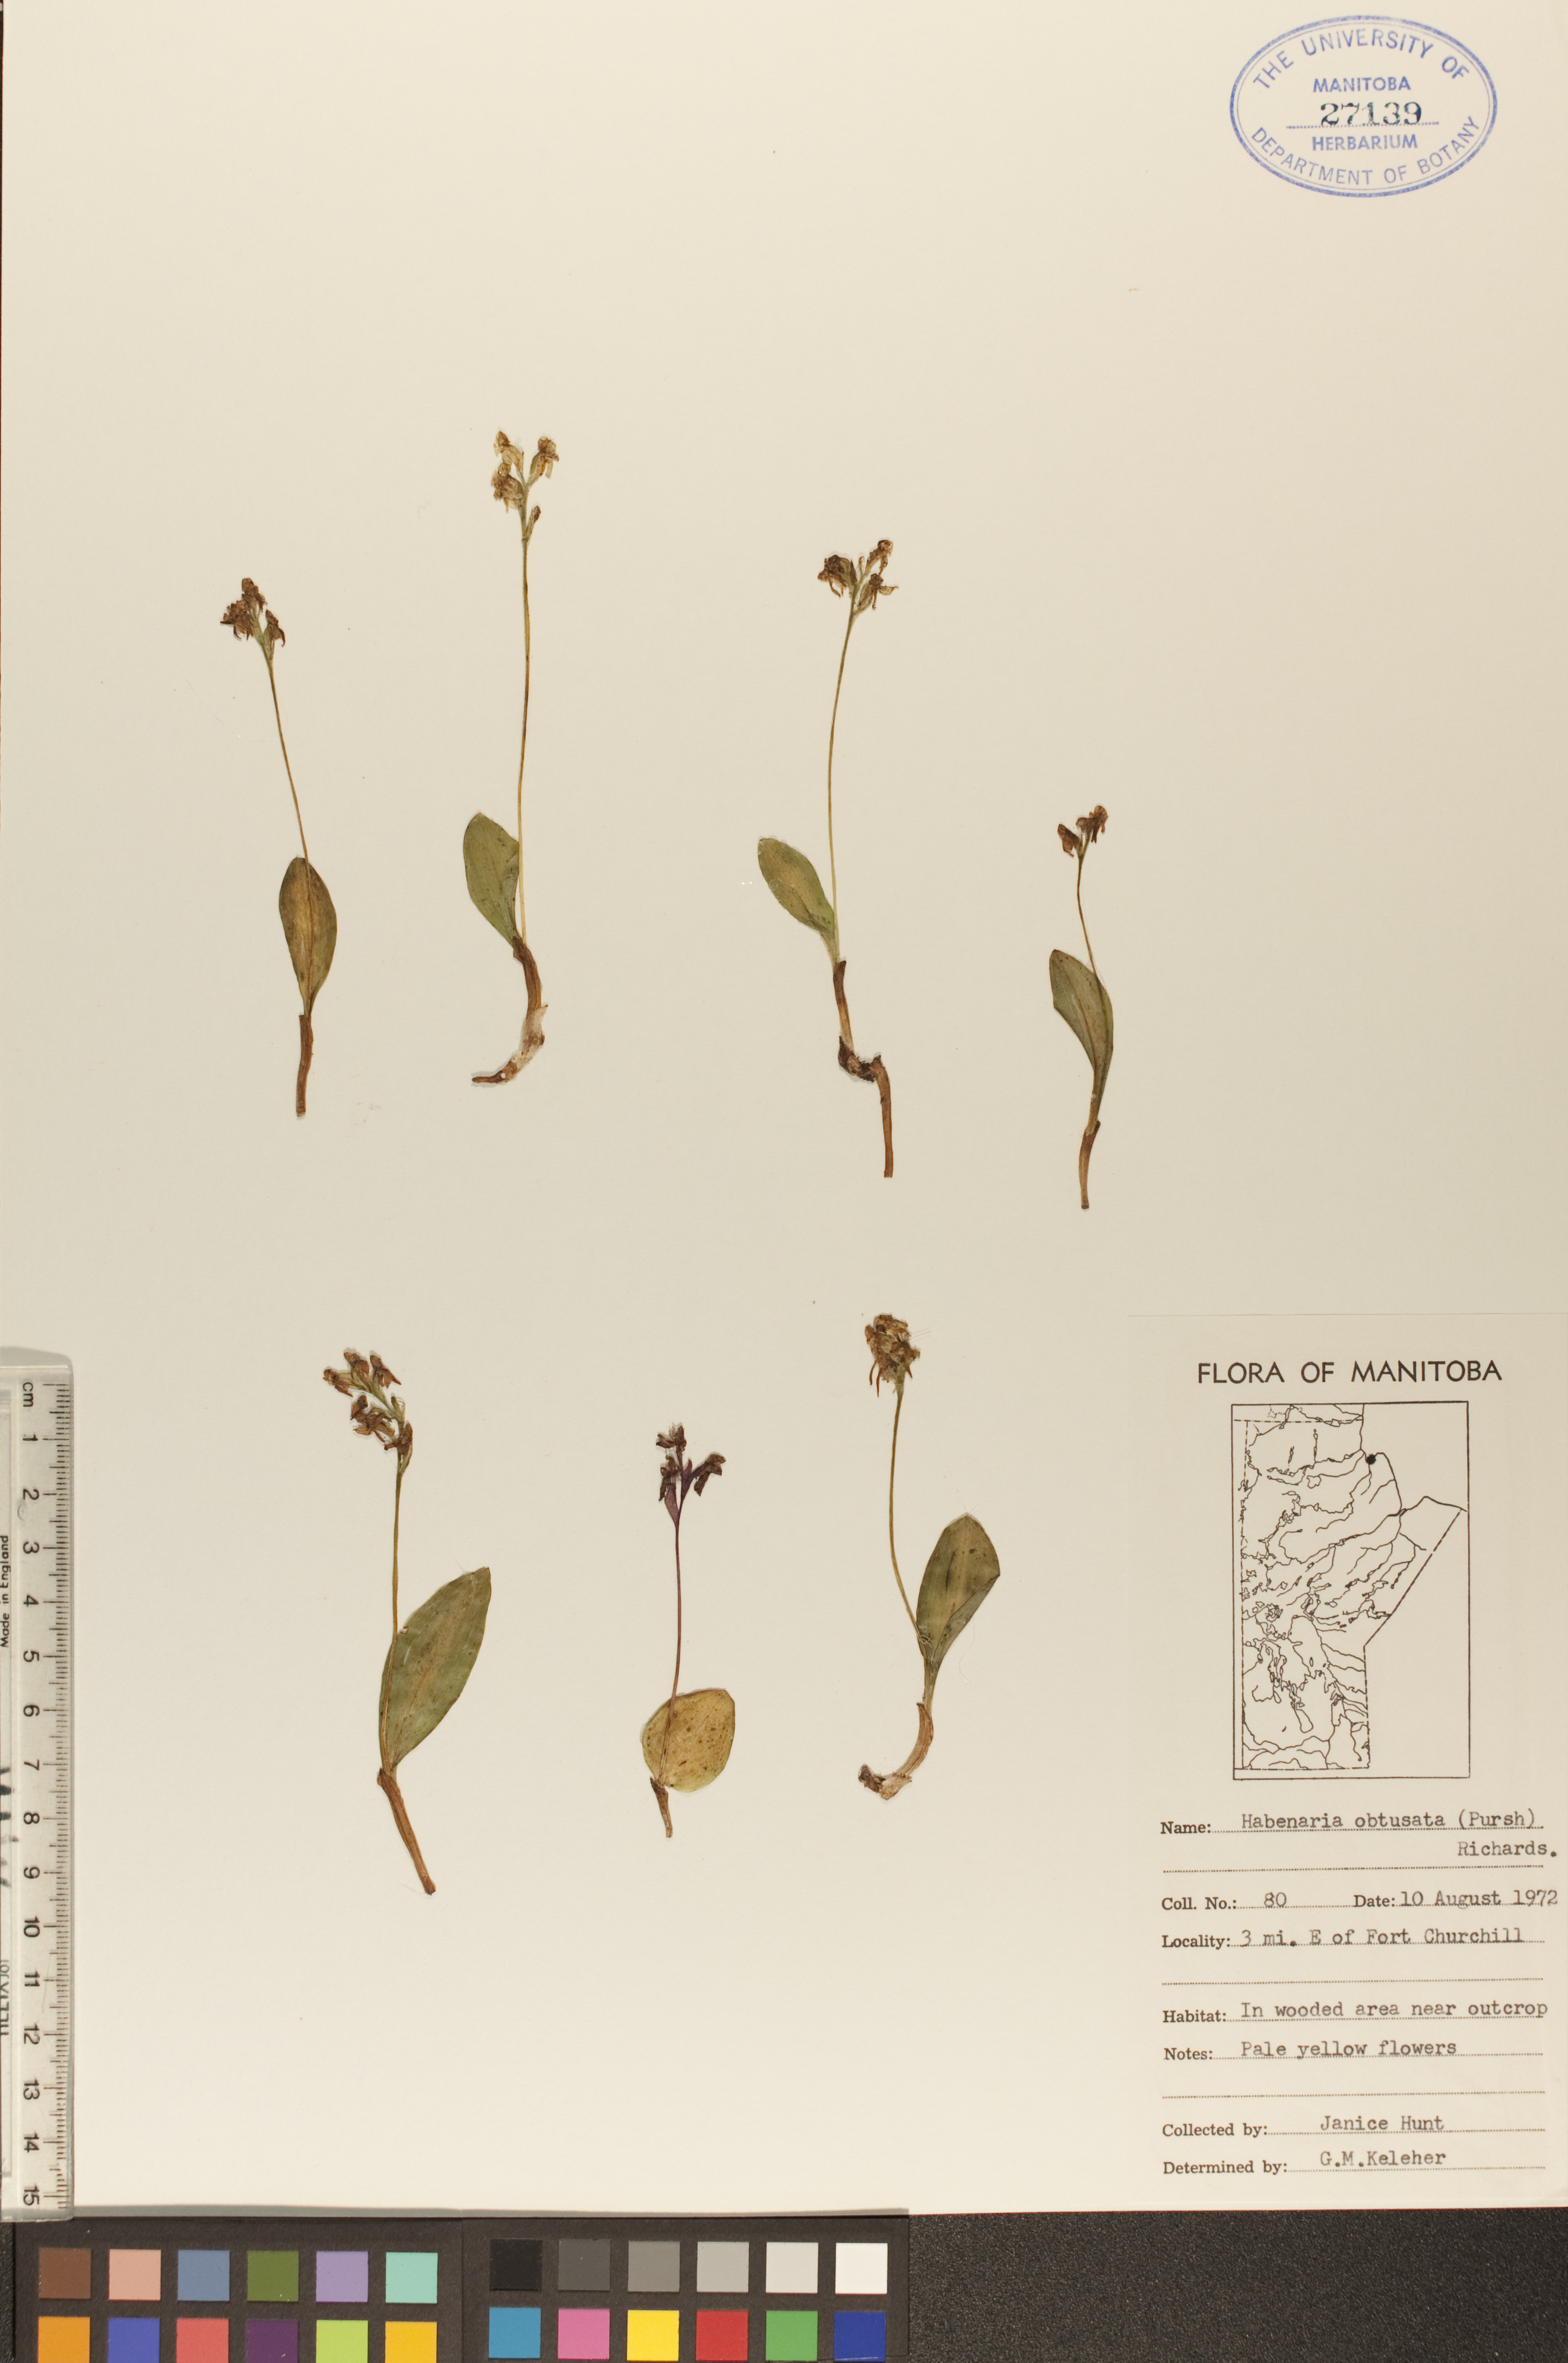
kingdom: Plantae
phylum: Tracheophyta
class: Liliopsida
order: Asparagales
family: Orchidaceae
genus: Platanthera
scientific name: Platanthera obtusata
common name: Blunt bog orchid
